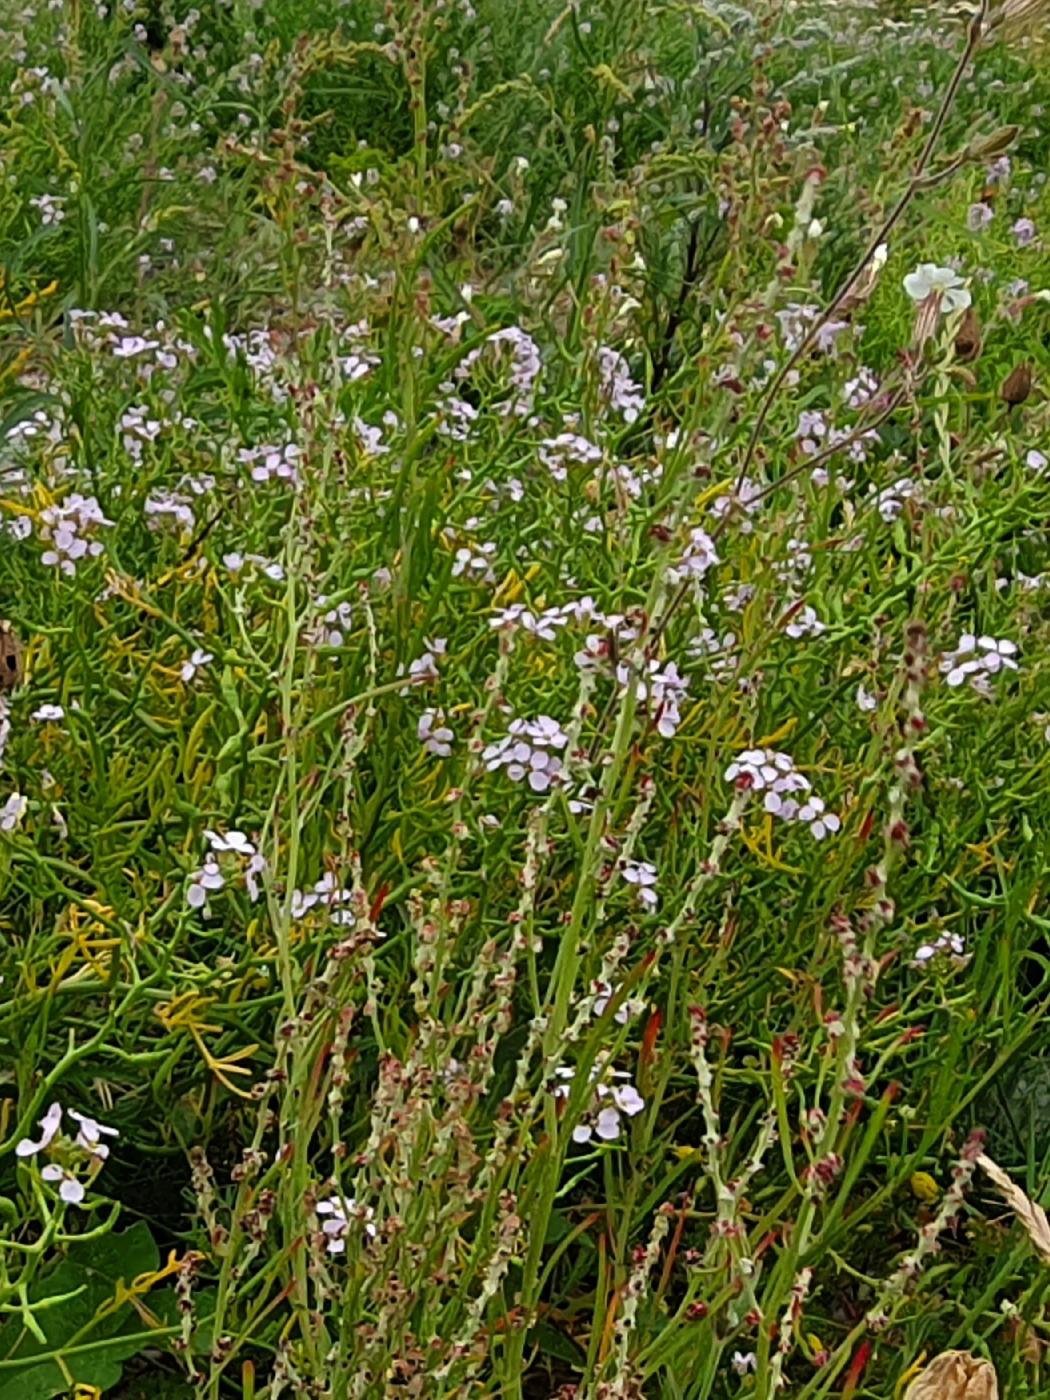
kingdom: Plantae
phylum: Tracheophyta
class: Magnoliopsida
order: Brassicales
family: Brassicaceae
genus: Cakile
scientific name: Cakile maritima
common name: Strandsennep
